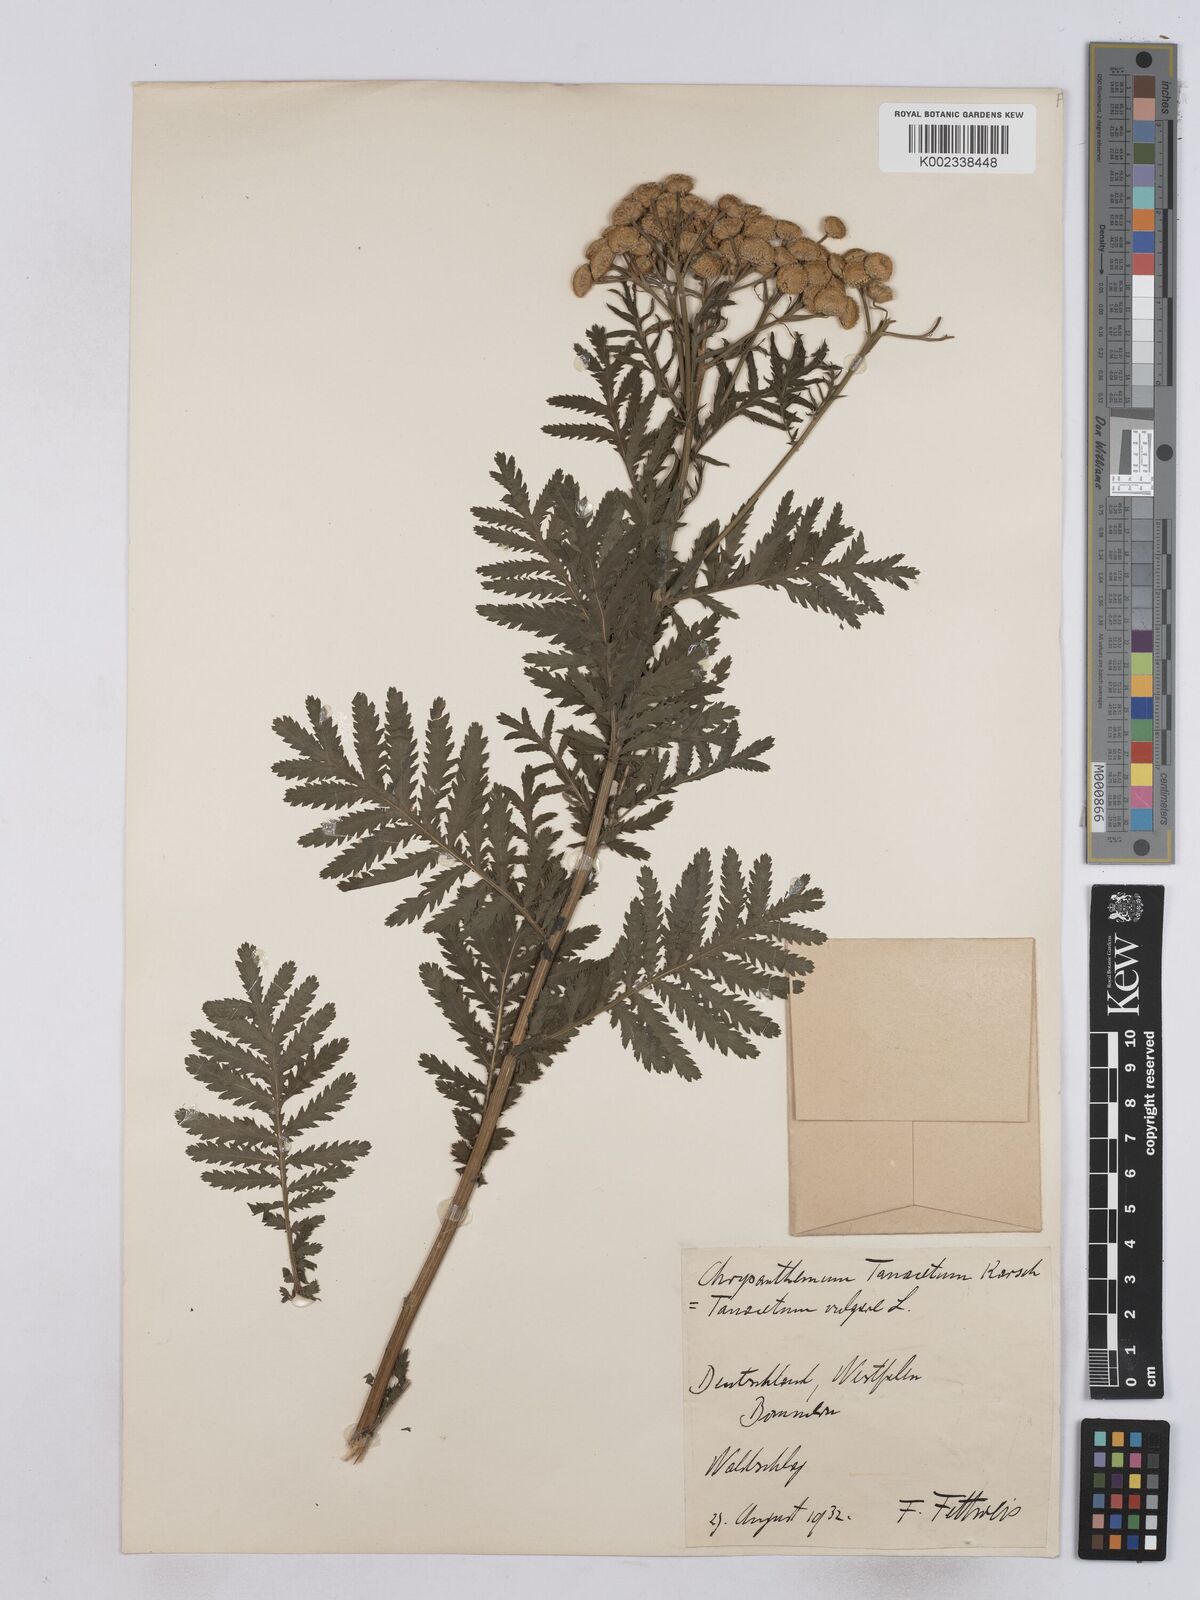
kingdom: Plantae
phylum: Tracheophyta
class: Magnoliopsida
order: Asterales
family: Asteraceae
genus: Tanacetum
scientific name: Tanacetum vulgare
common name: Common tansy
